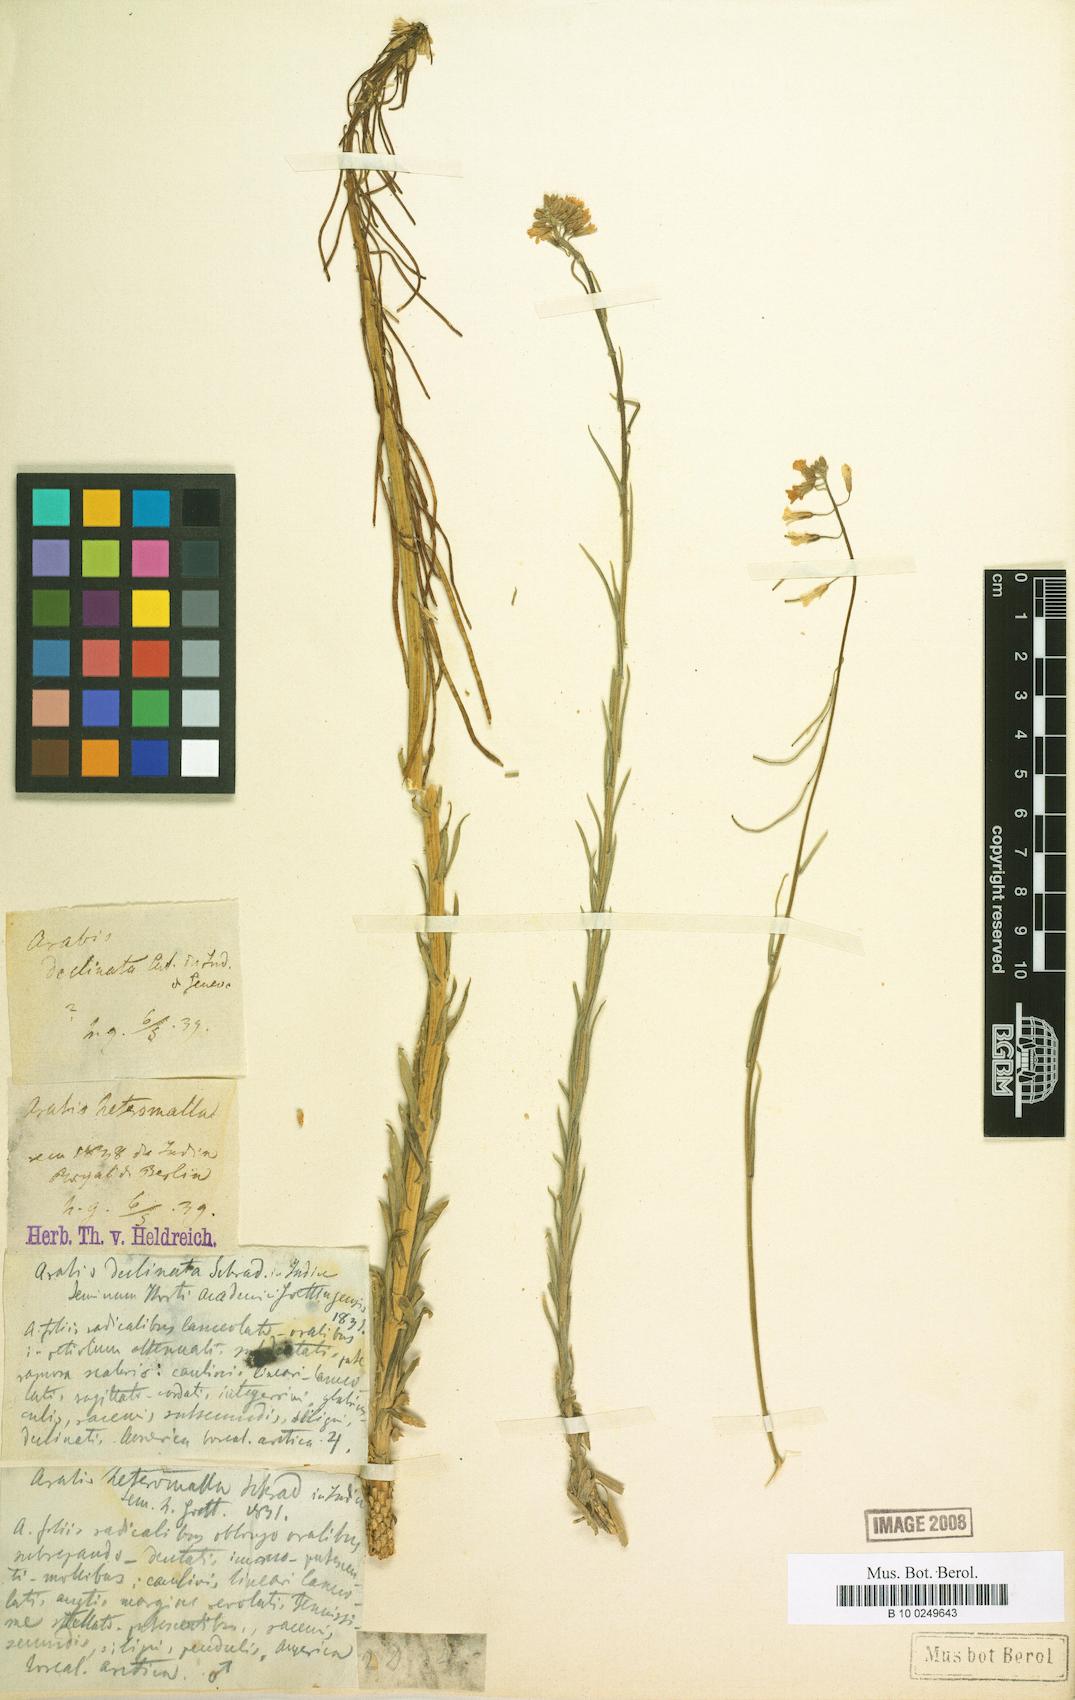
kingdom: Plantae
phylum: Tracheophyta
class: Magnoliopsida
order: Brassicales
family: Brassicaceae
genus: Boechera
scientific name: Boechera holboellii
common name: Holboell's rockcress
